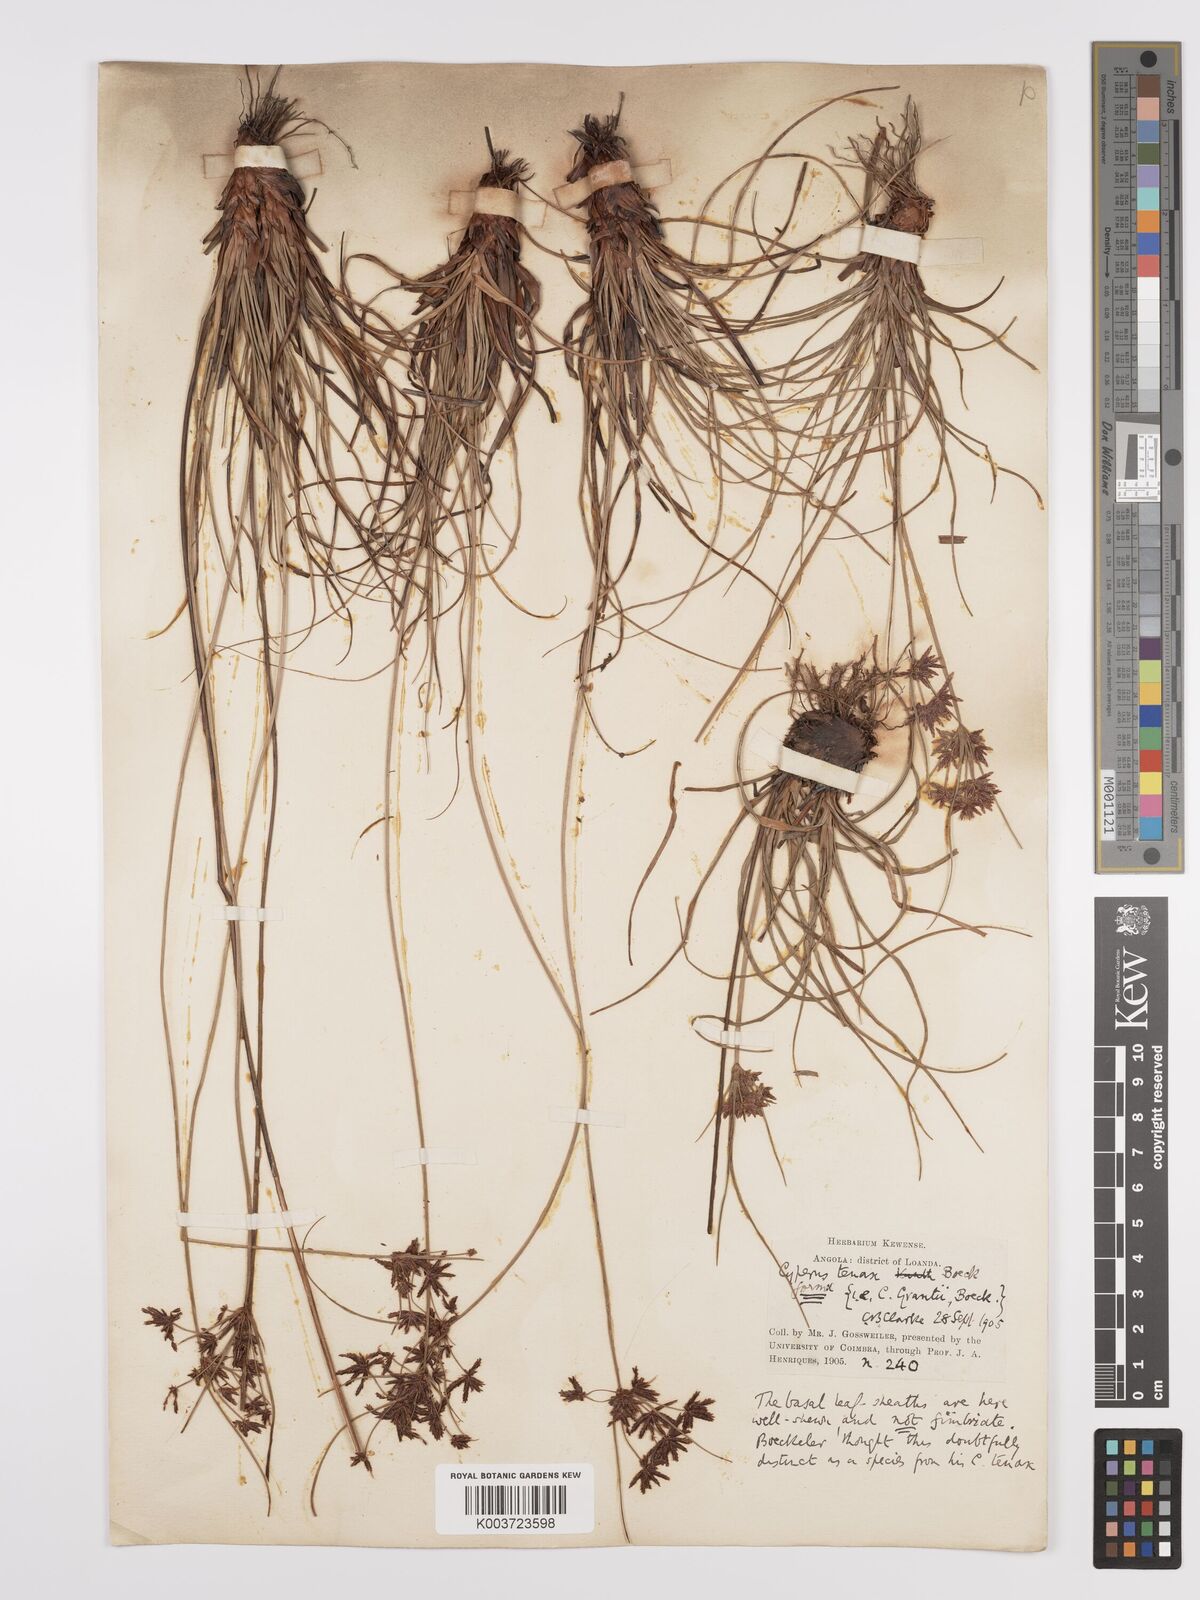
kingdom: Plantae
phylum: Tracheophyta
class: Liliopsida
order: Poales
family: Cyperaceae
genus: Cyperus
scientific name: Cyperus tenax
